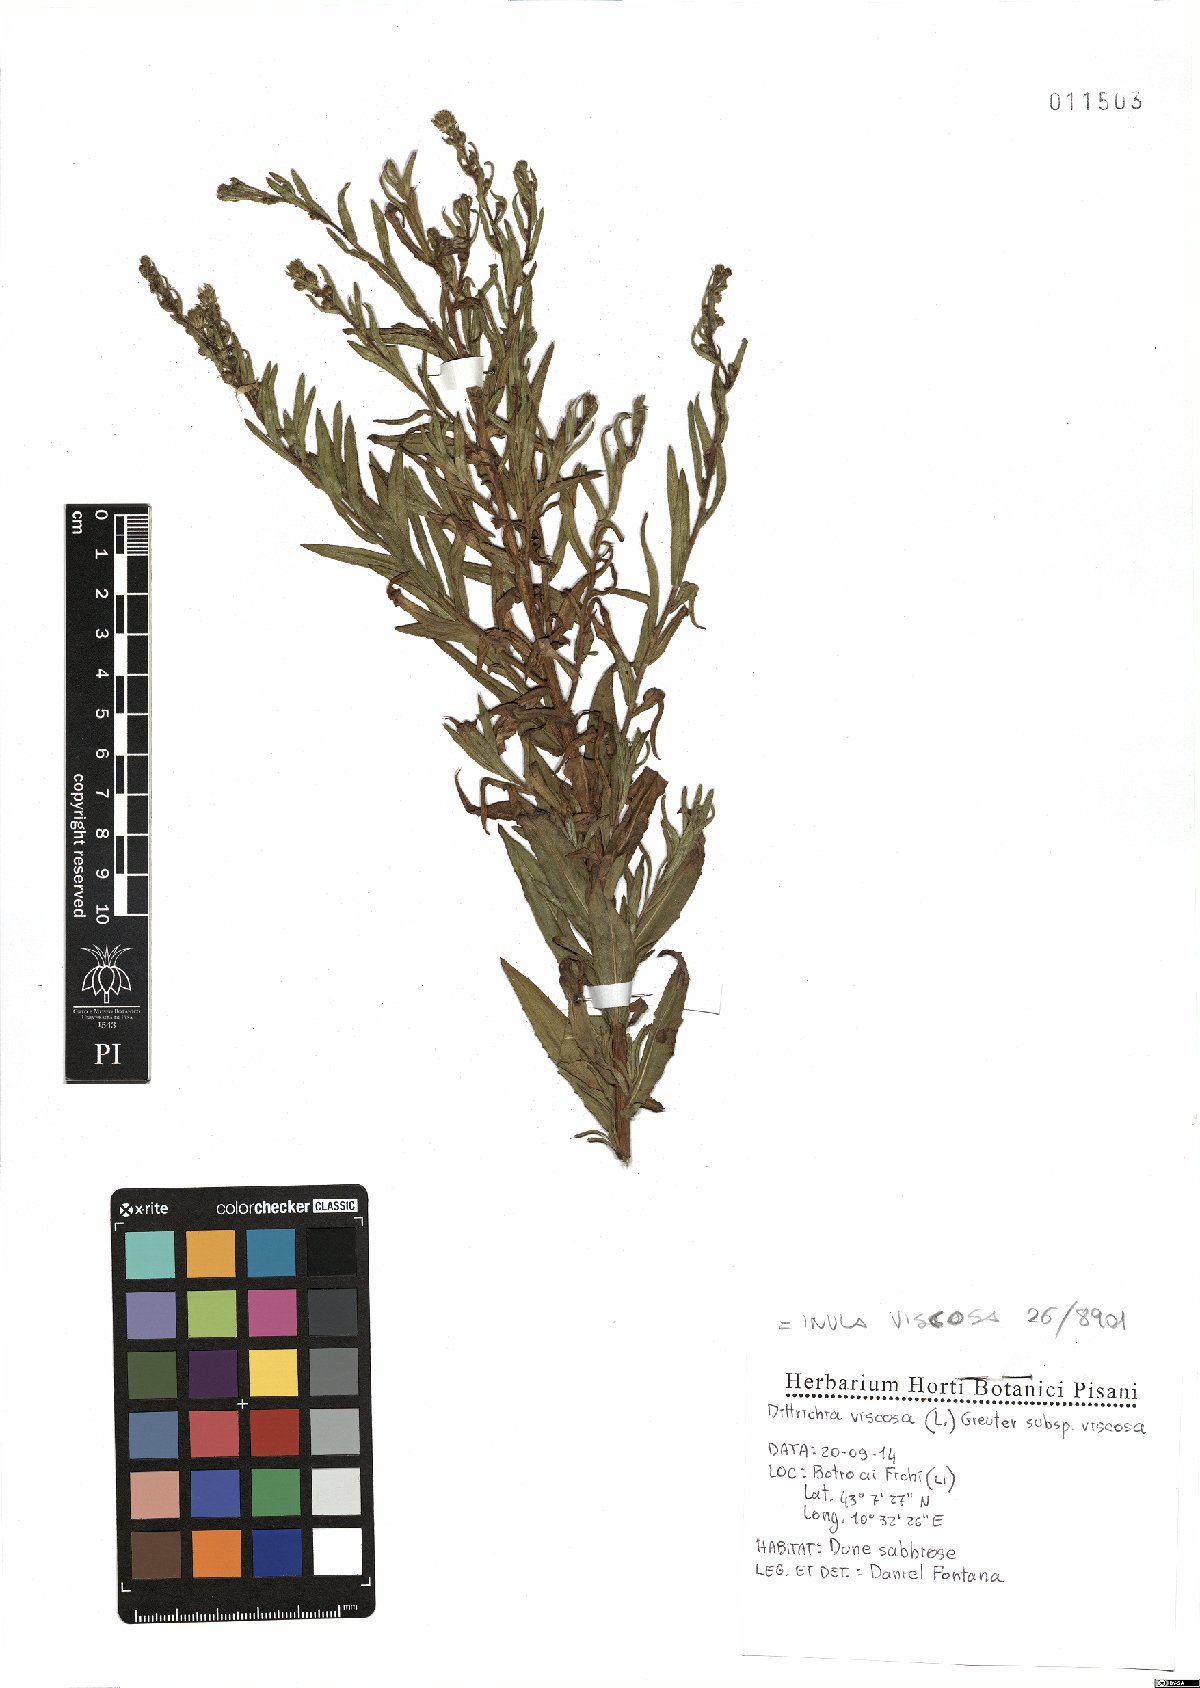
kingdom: Plantae
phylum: Tracheophyta
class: Magnoliopsida
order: Asterales
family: Asteraceae
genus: Dittrichia
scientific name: Dittrichia viscosa
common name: Woody fleabane
